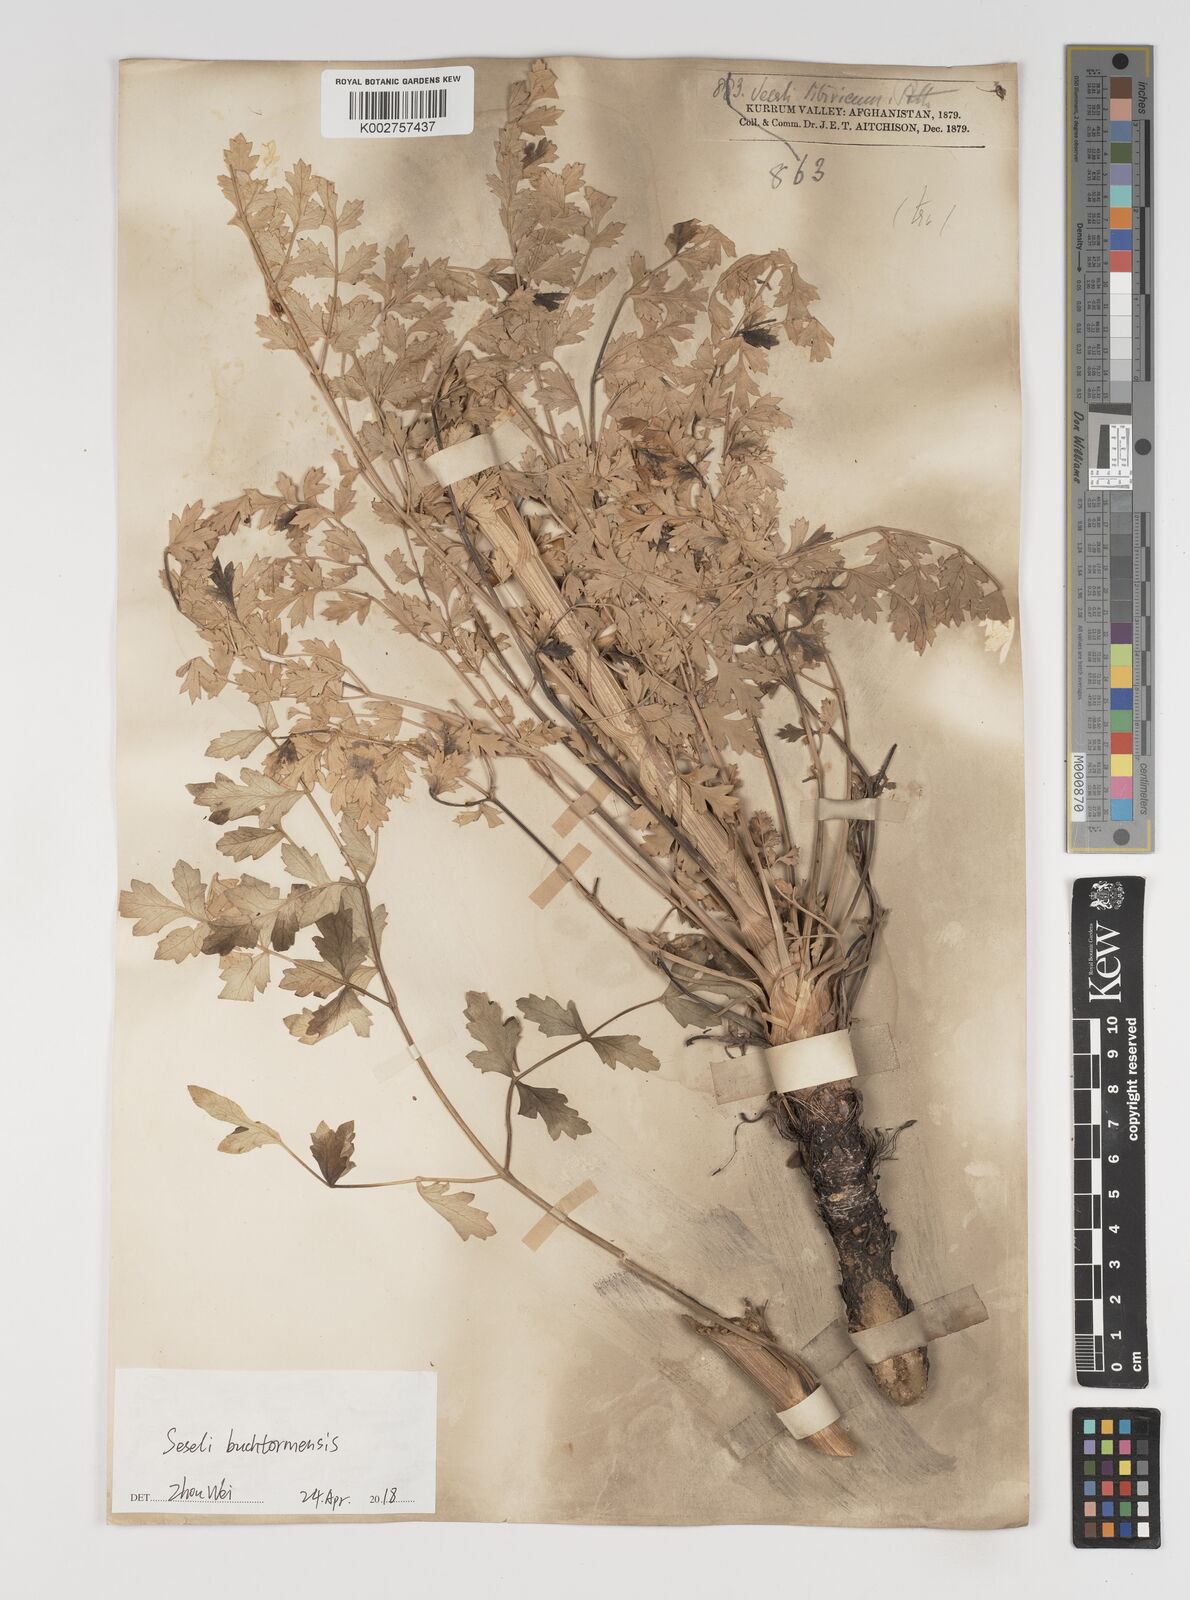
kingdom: Plantae
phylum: Tracheophyta
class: Magnoliopsida
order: Apiales
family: Apiaceae
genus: Seseli
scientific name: Seseli buchtormense
